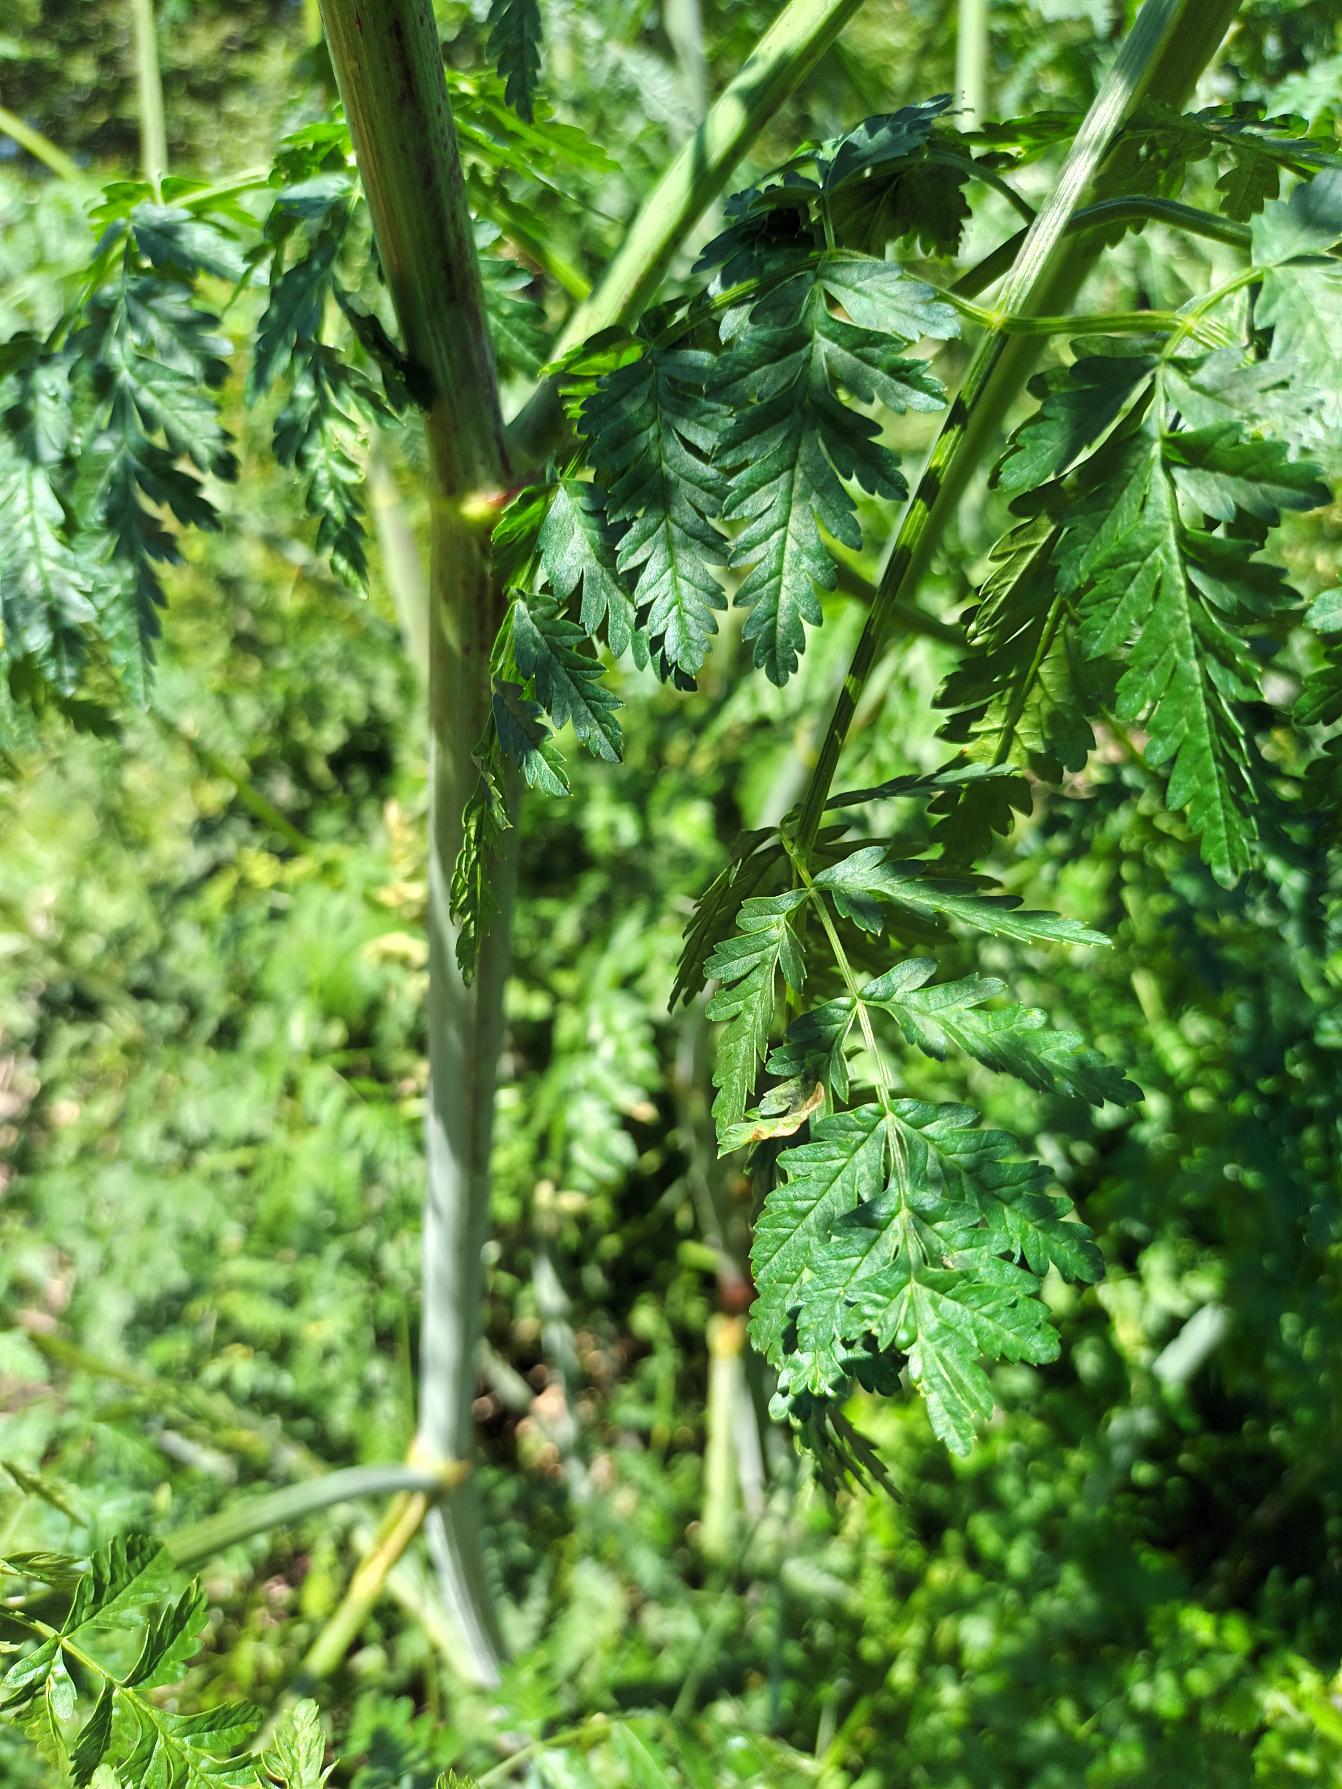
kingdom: Plantae
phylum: Tracheophyta
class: Magnoliopsida
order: Apiales
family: Apiaceae
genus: Conium
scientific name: Conium maculatum
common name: Skarntyde
